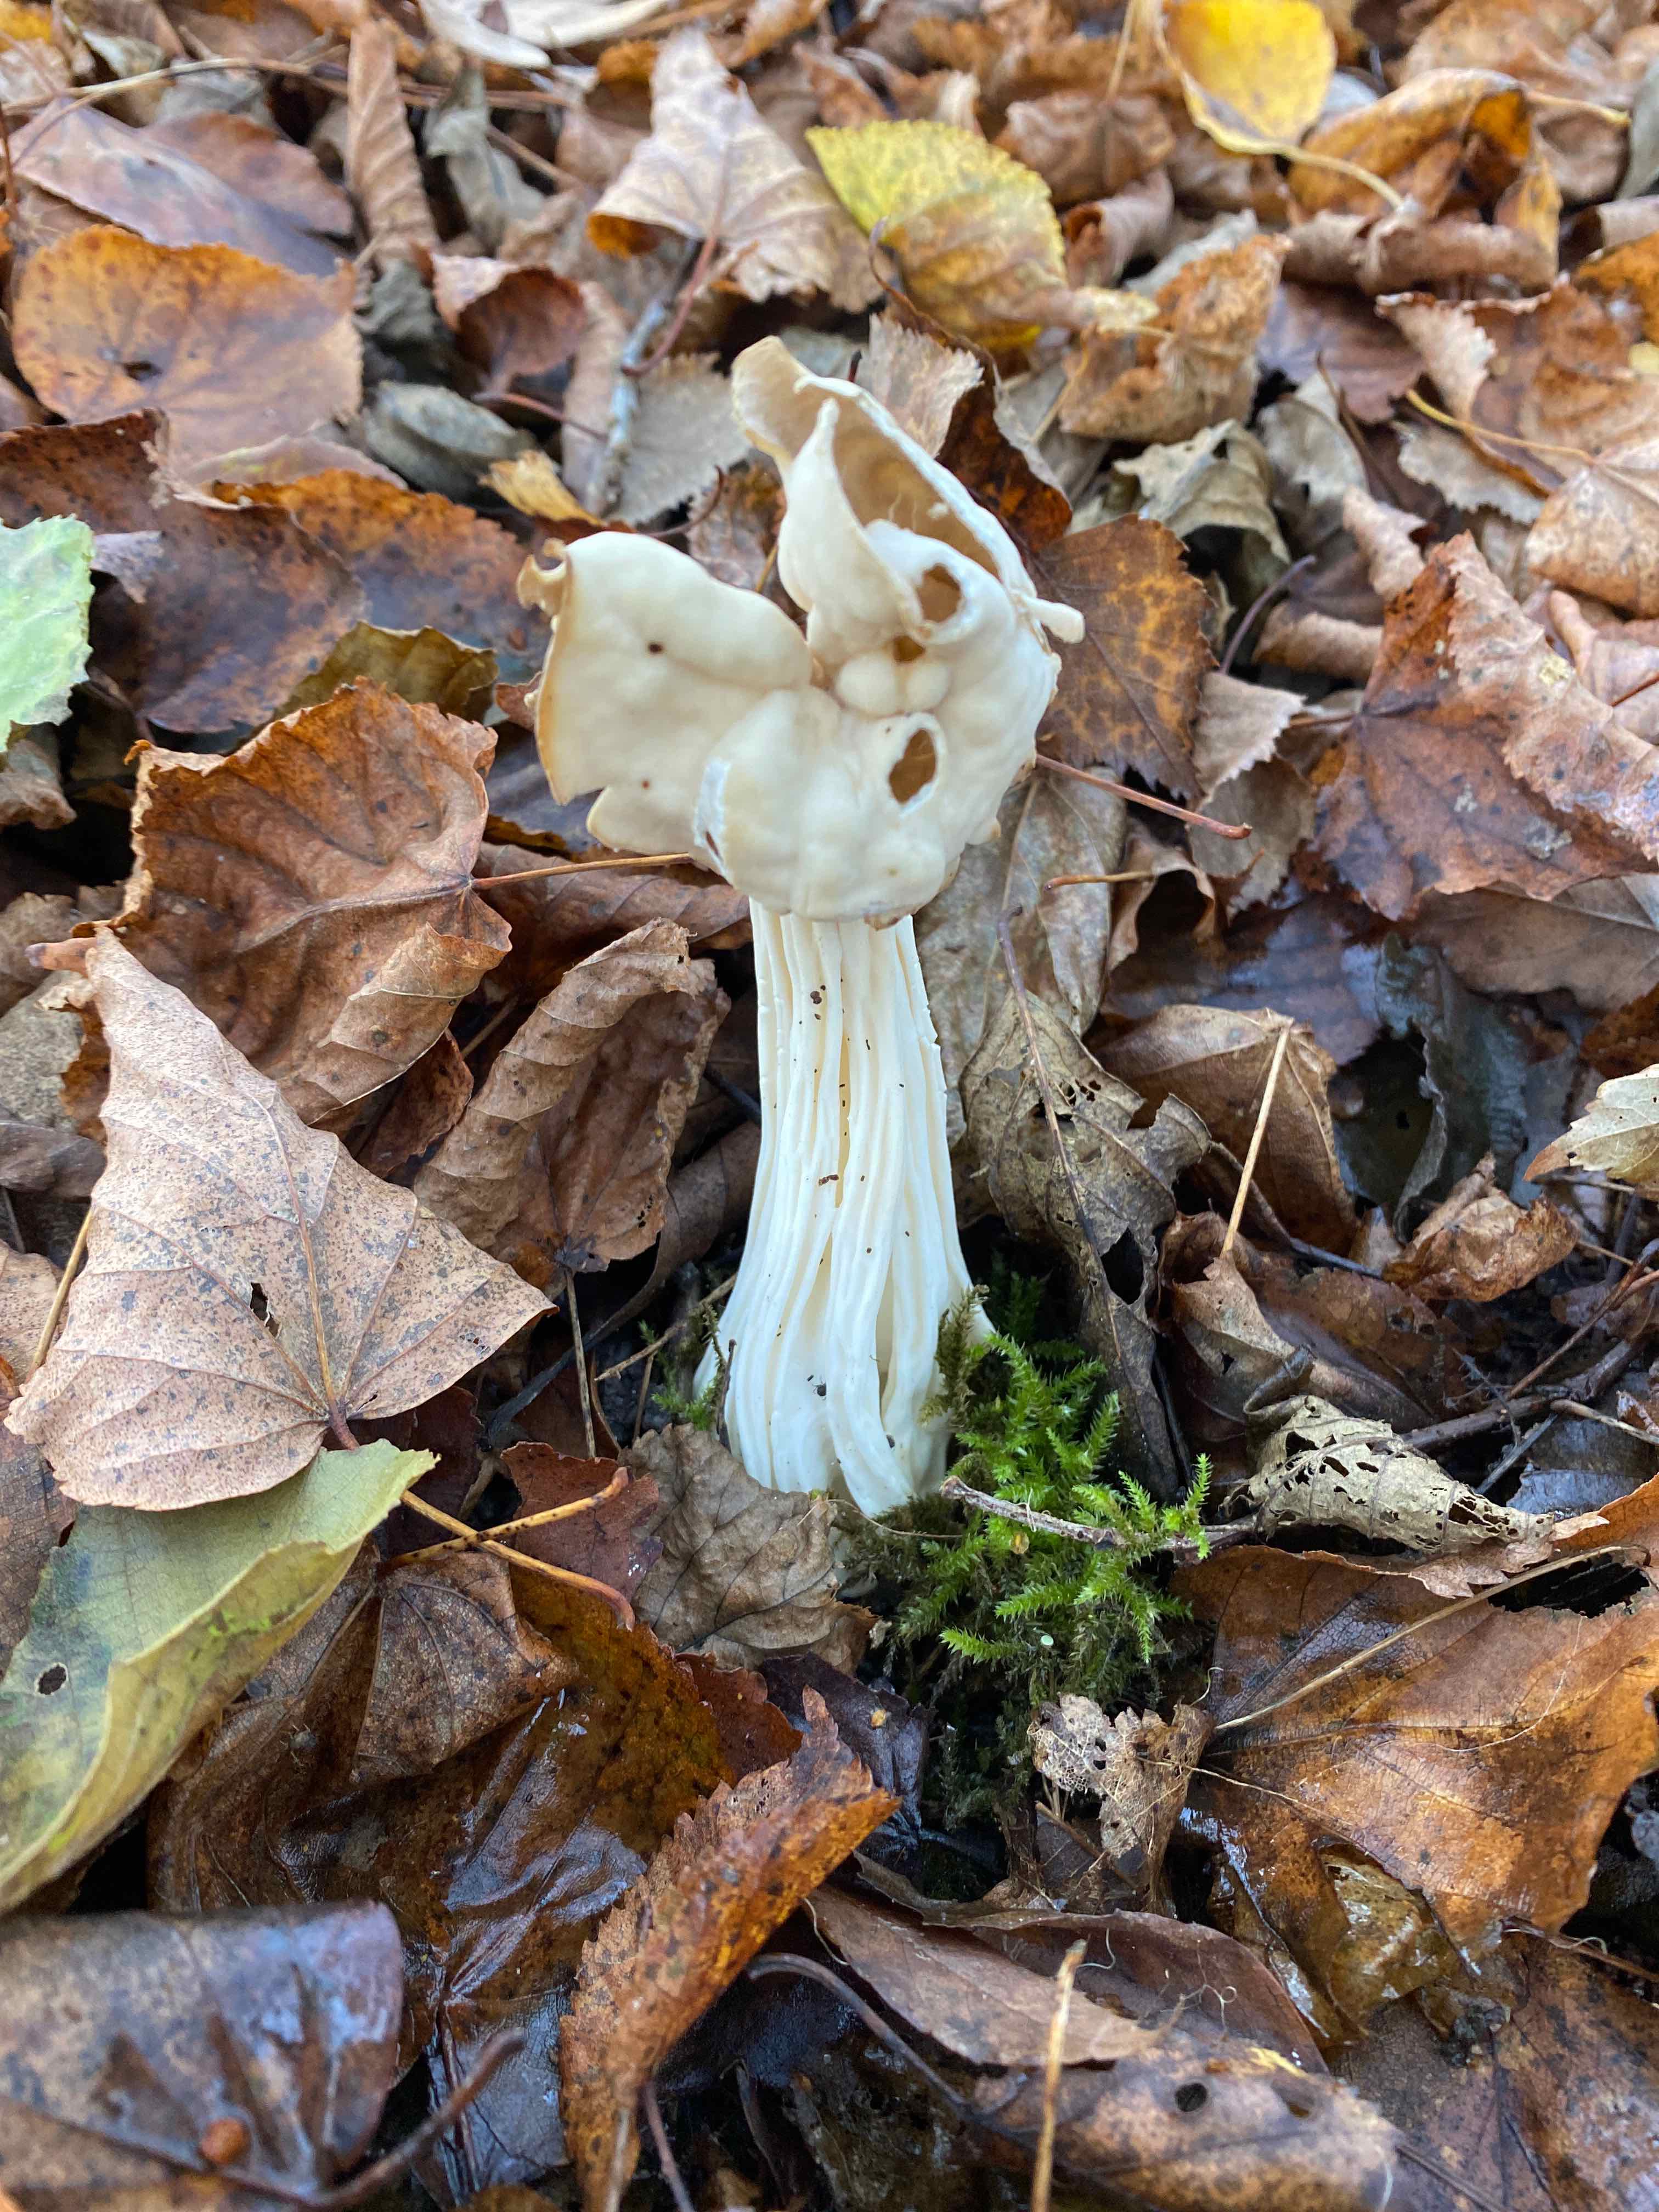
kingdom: Fungi
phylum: Ascomycota
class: Pezizomycetes
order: Pezizales
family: Helvellaceae
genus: Helvella
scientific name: Helvella crispa
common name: kruset foldhat
